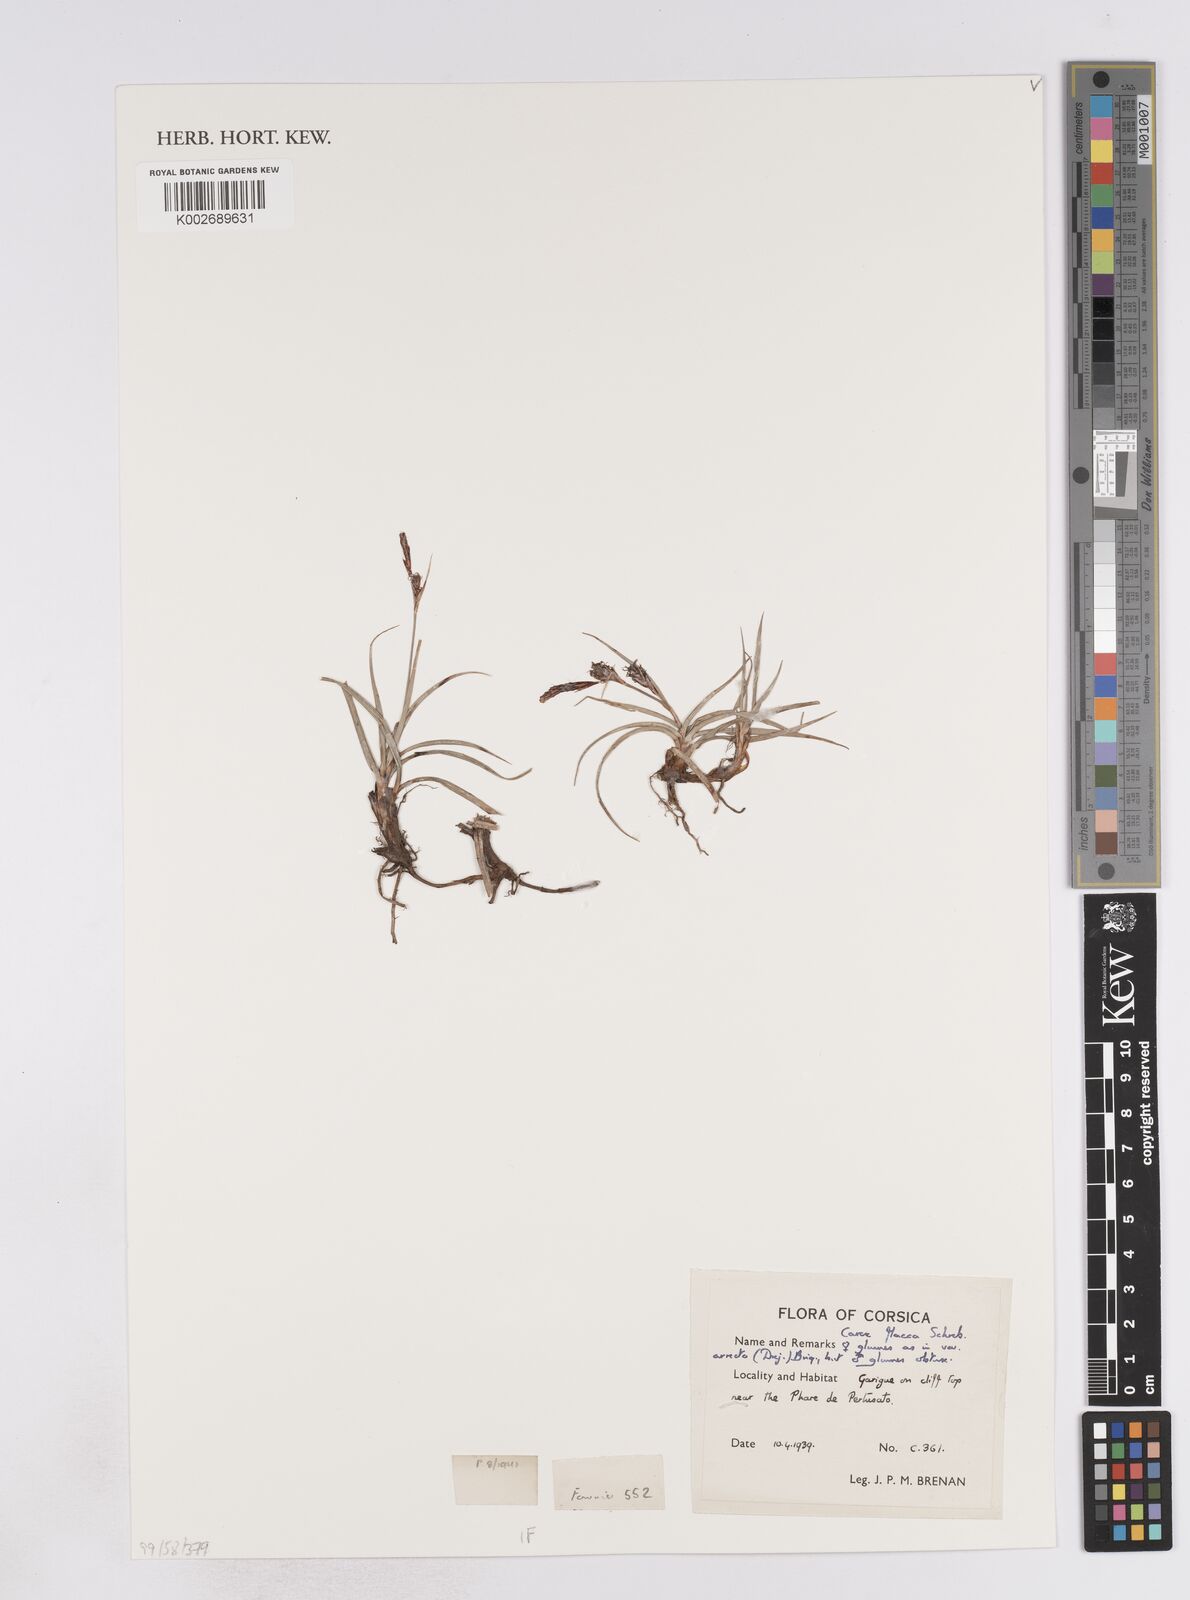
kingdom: Plantae
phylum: Tracheophyta
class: Liliopsida
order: Poales
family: Cyperaceae
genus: Carex
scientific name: Carex flacca
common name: Glaucous sedge
